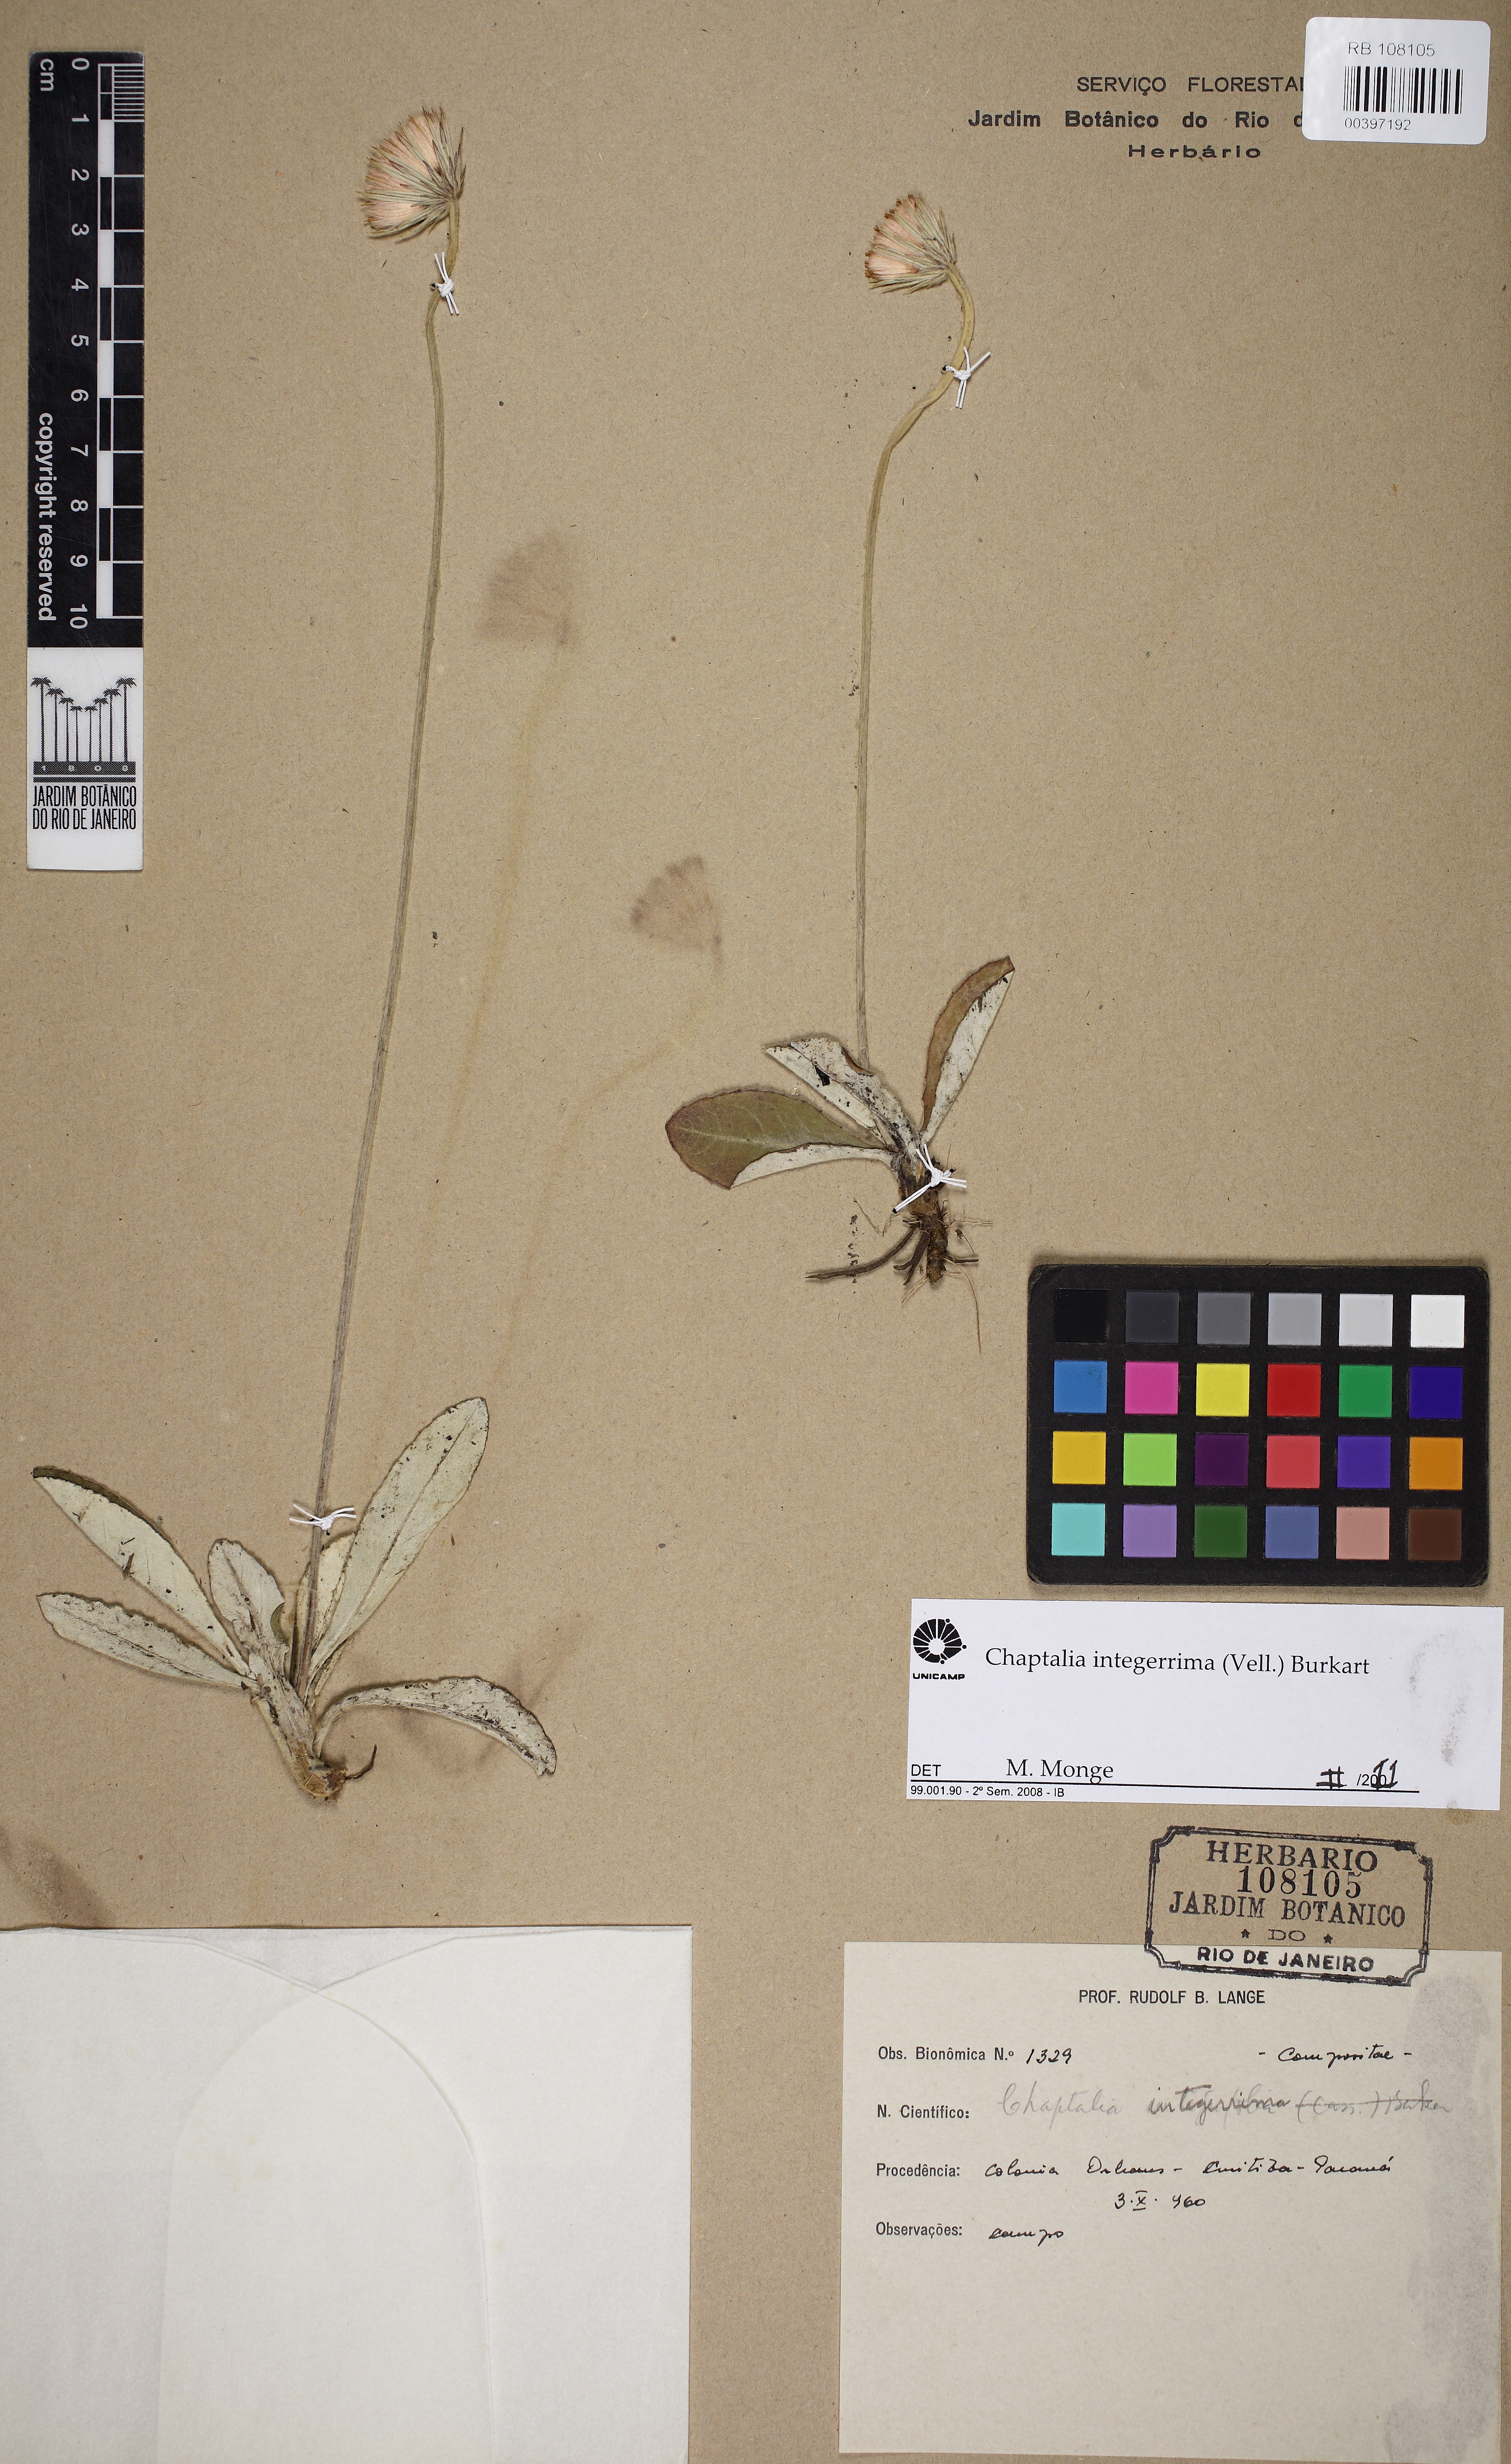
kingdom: Plantae
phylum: Tracheophyta
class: Magnoliopsida
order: Asterales
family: Asteraceae
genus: Chaptalia
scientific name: Chaptalia integerrima
